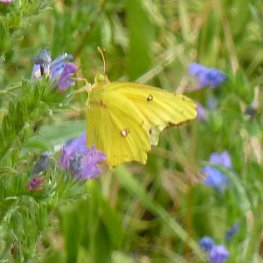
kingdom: Animalia
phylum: Arthropoda
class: Insecta
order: Lepidoptera
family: Pieridae
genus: Colias
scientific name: Colias eurytheme
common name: Orange Sulphur
